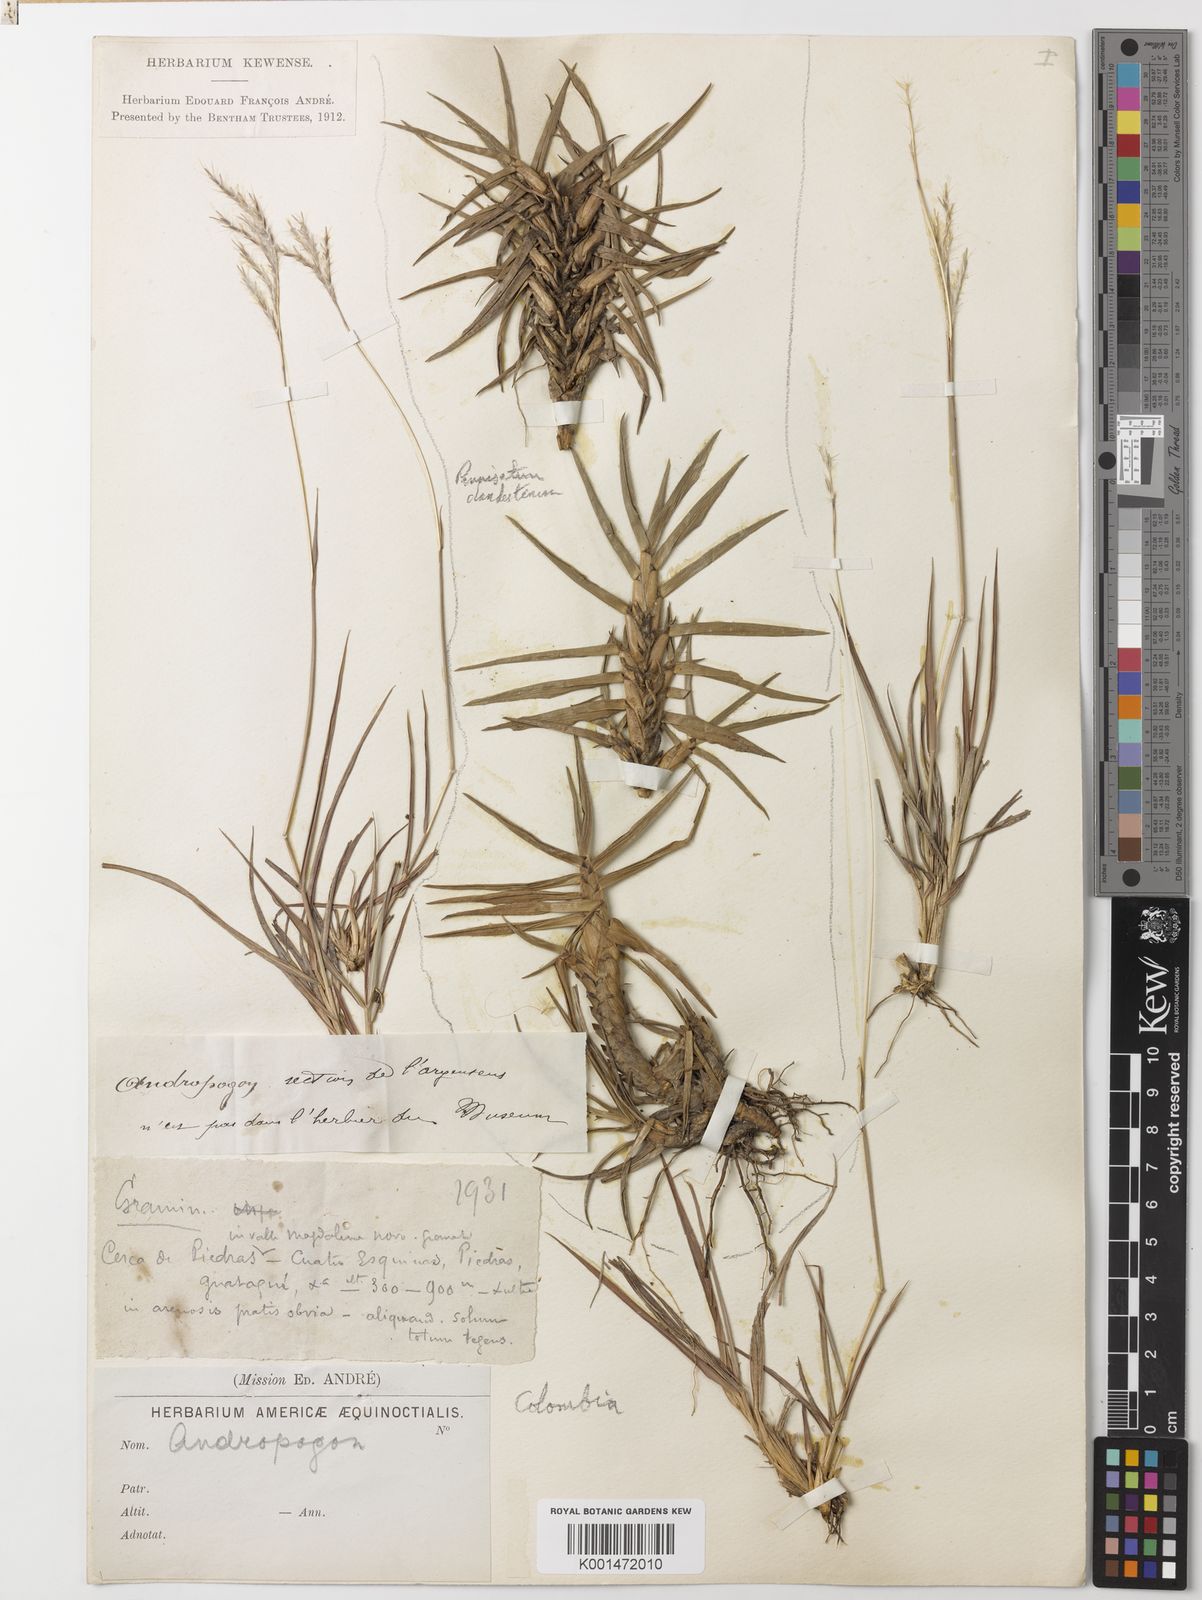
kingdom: Plantae
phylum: Tracheophyta
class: Liliopsida
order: Poales
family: Poaceae
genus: Bothriochloa
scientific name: Bothriochloa ischaemum
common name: Yellow bluestem
